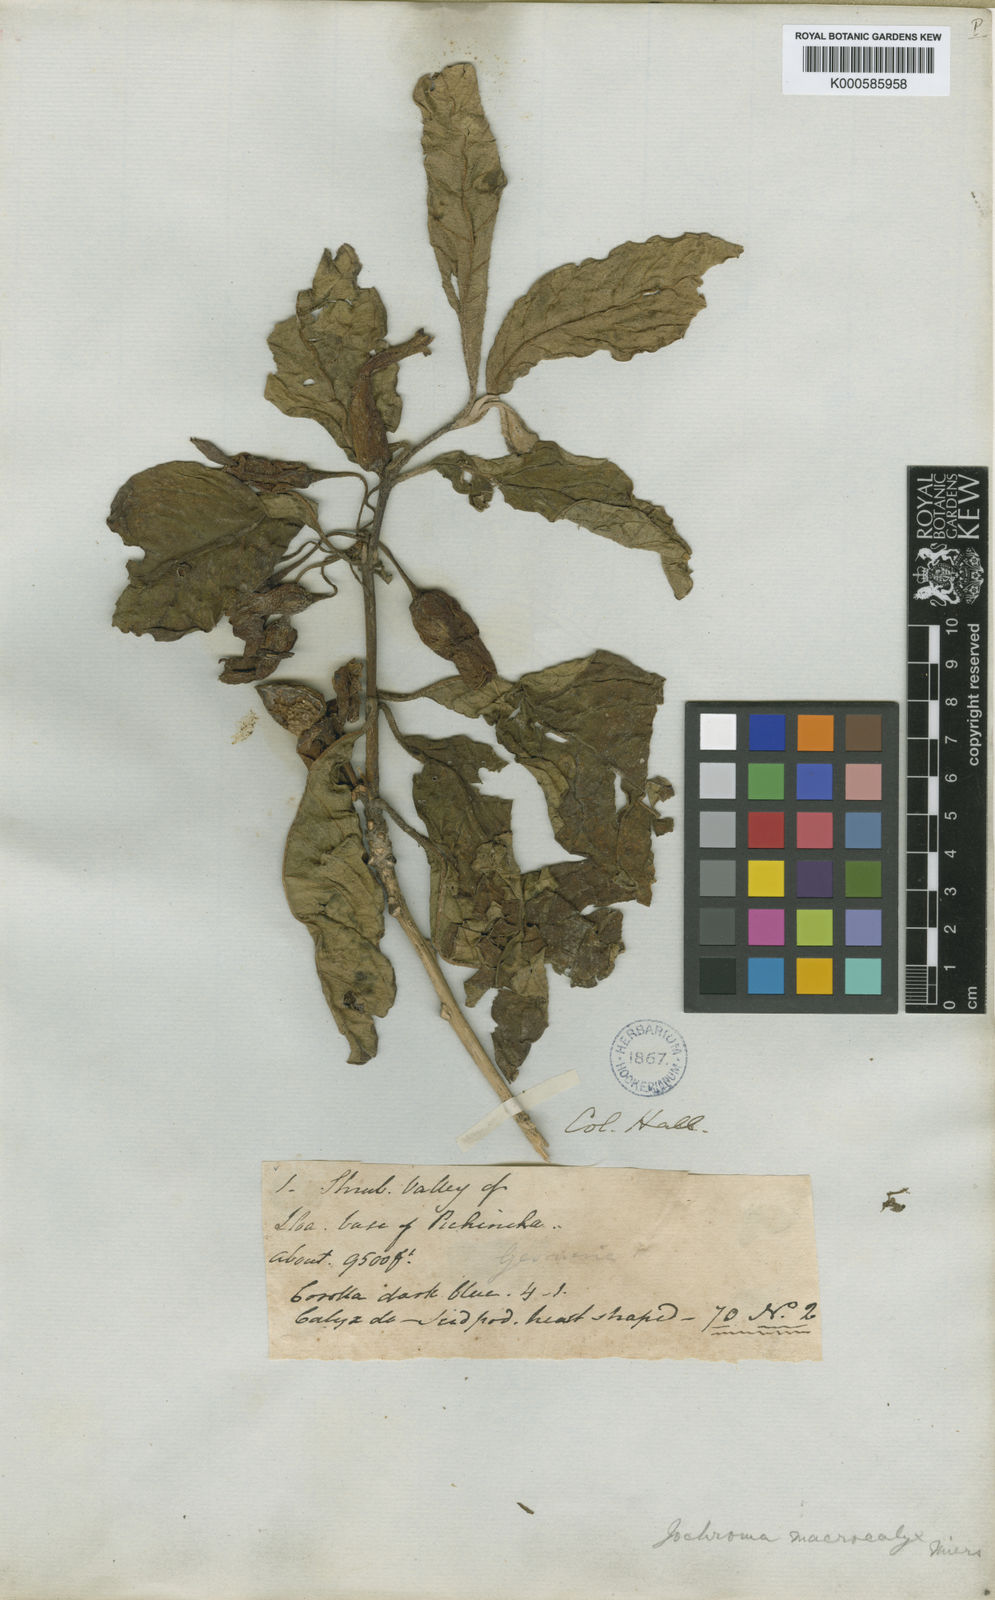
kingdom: Plantae
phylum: Tracheophyta
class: Magnoliopsida
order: Solanales
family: Solanaceae
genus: Iochroma
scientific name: Iochroma calycinum
